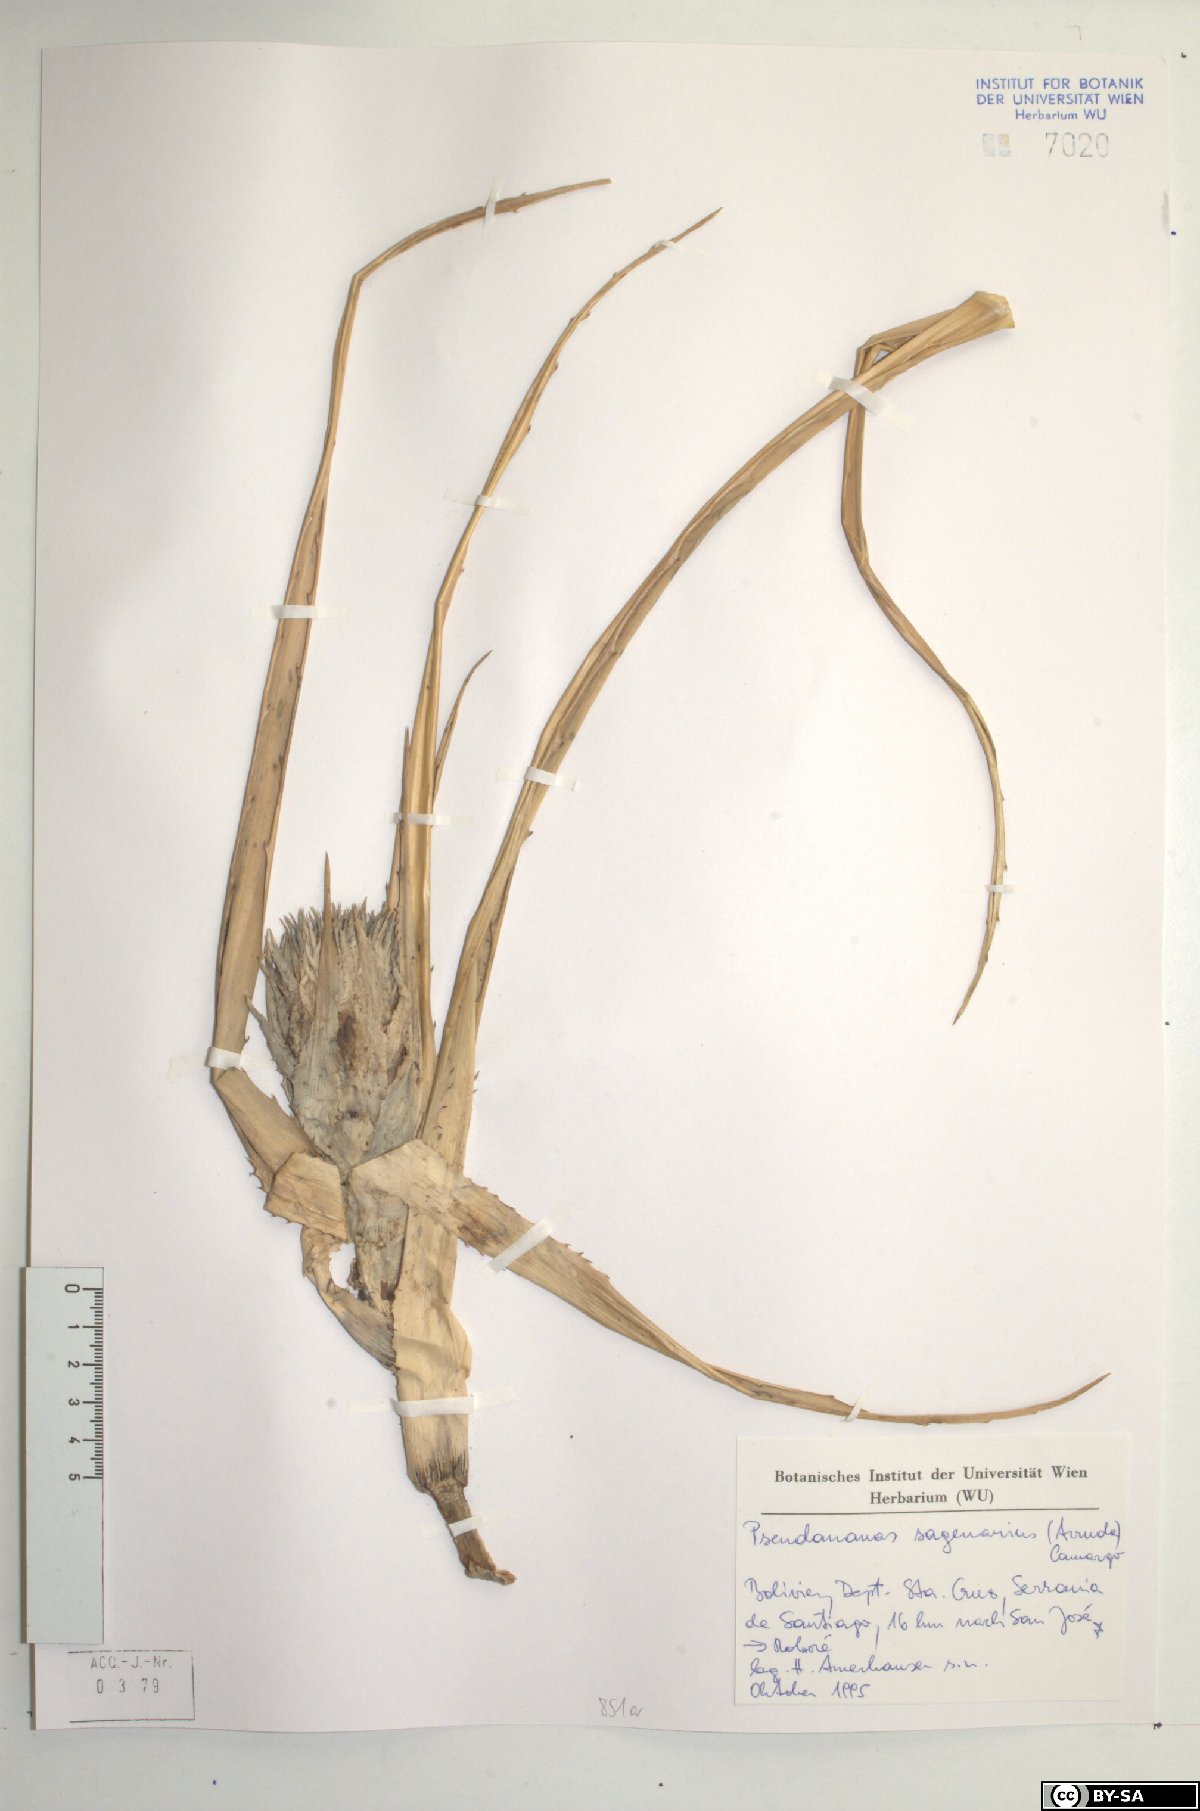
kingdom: Plantae
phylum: Tracheophyta
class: Liliopsida
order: Poales
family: Bromeliaceae
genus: Ananas
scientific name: Ananas comosus
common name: Pineapple
